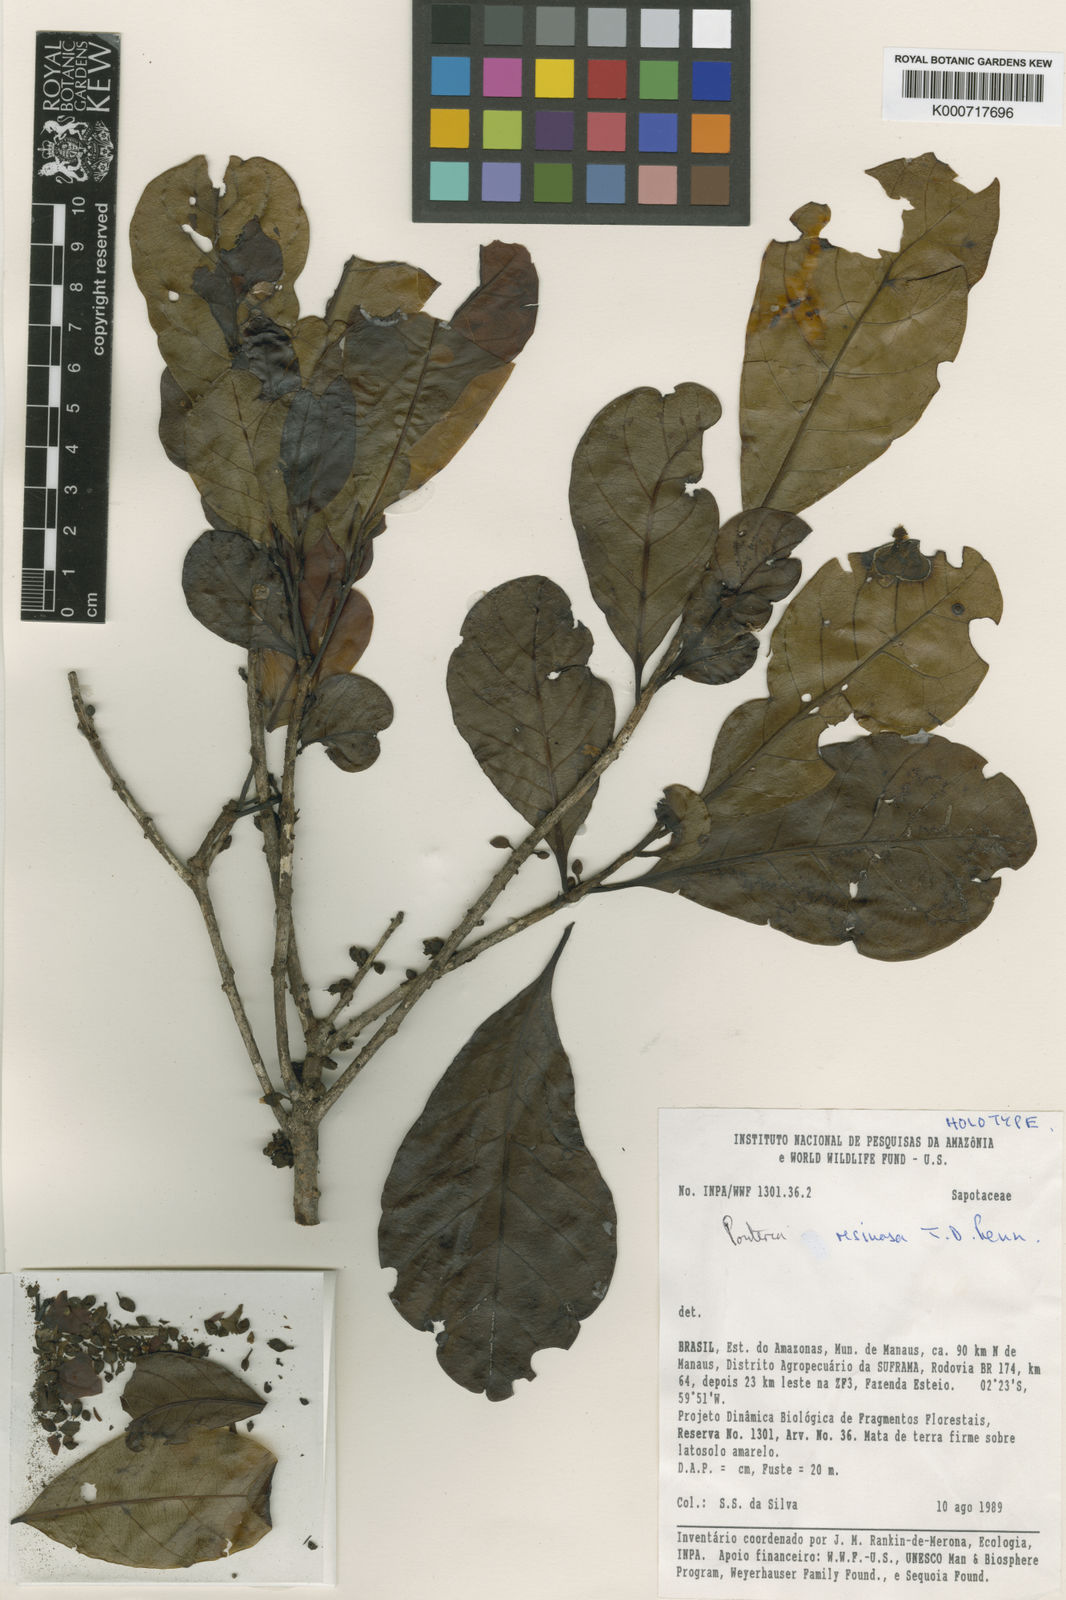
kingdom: Plantae
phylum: Tracheophyta
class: Magnoliopsida
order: Ericales
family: Sapotaceae
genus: Pouteria
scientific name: Pouteria resinosa
